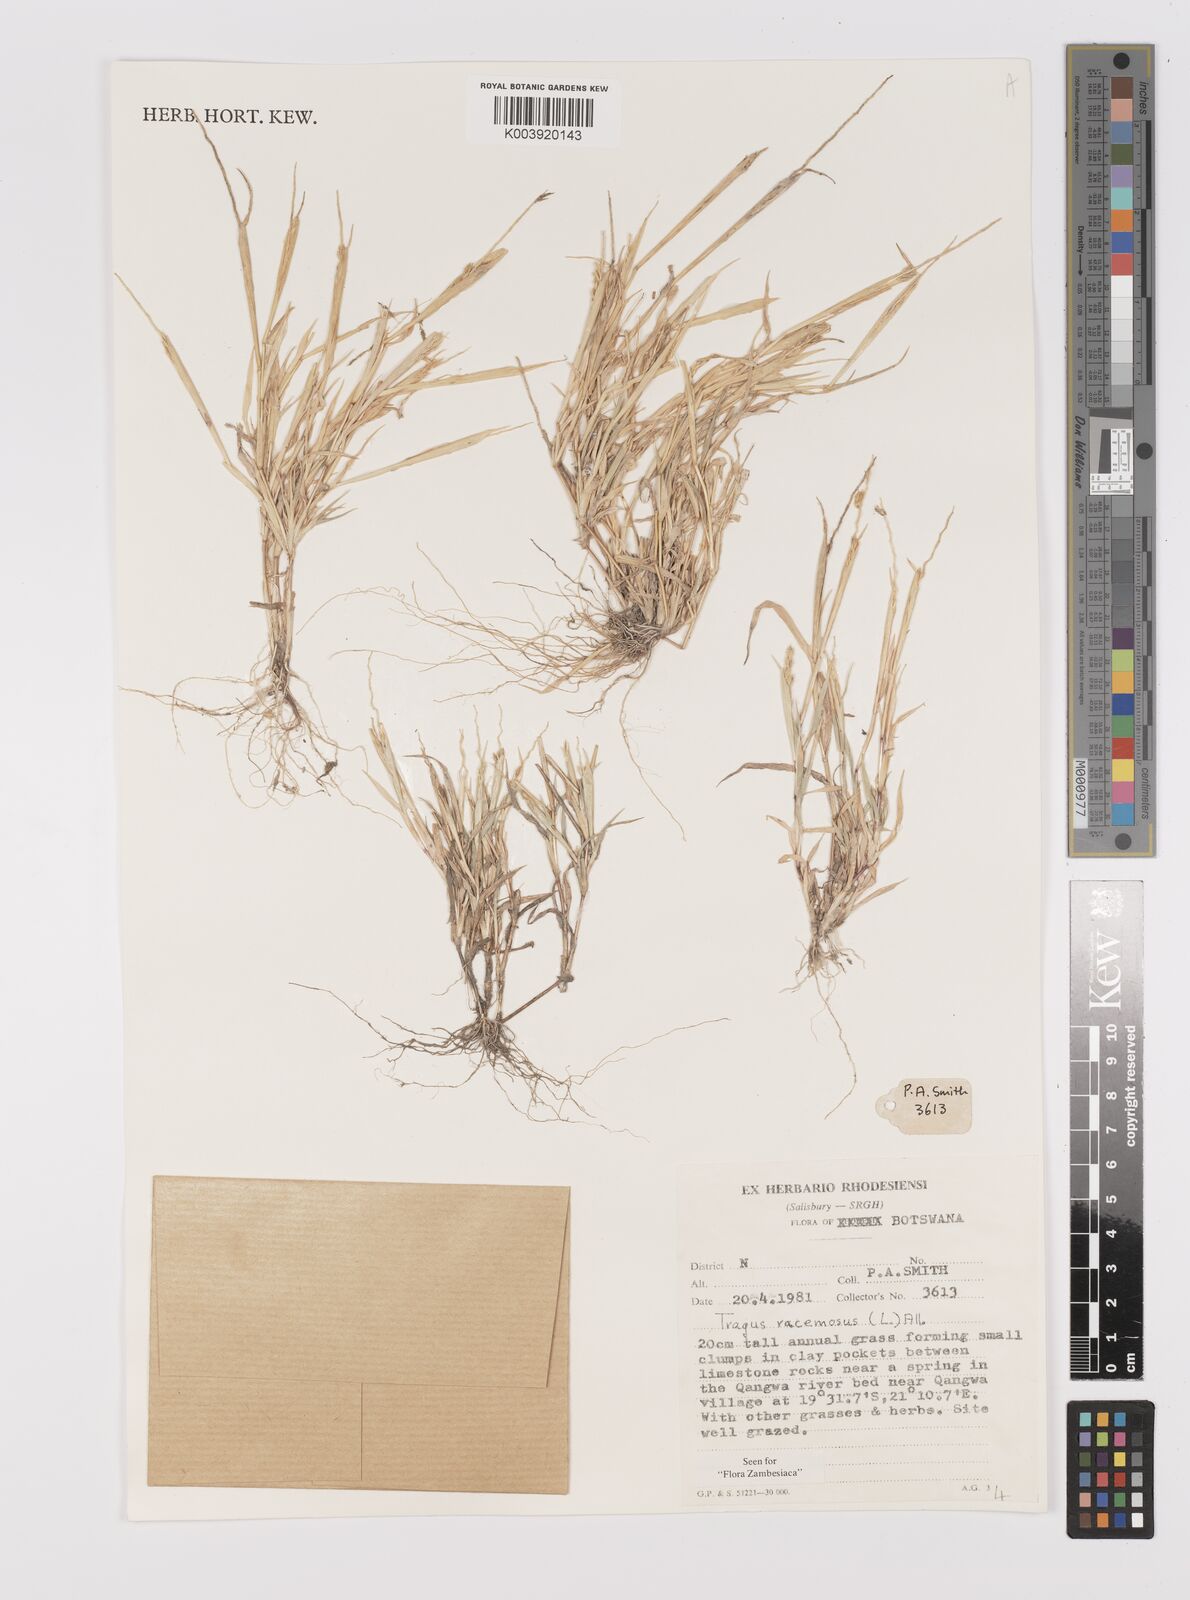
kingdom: Plantae
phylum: Tracheophyta
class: Liliopsida
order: Poales
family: Poaceae
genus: Tragus
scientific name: Tragus racemosus
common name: European bur-grass
